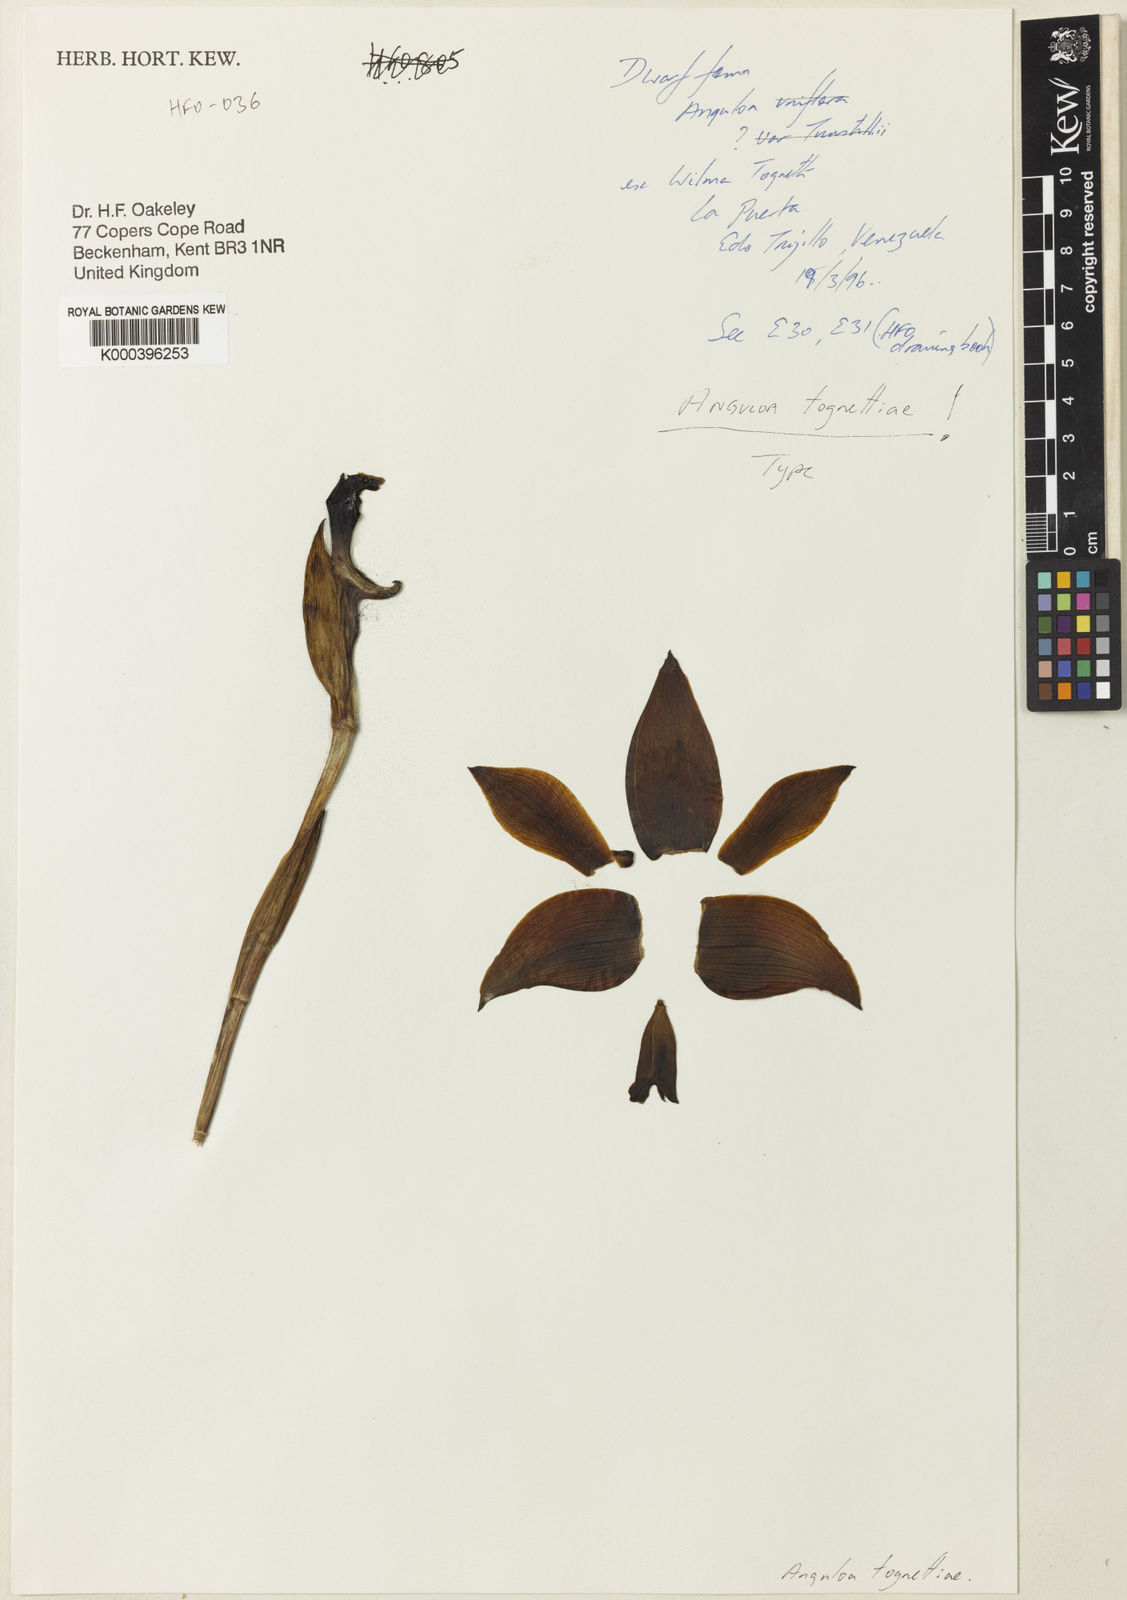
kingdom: Plantae
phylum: Tracheophyta
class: Liliopsida
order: Asparagales
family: Orchidaceae
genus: Anguloa
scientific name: Anguloa tognettiae
